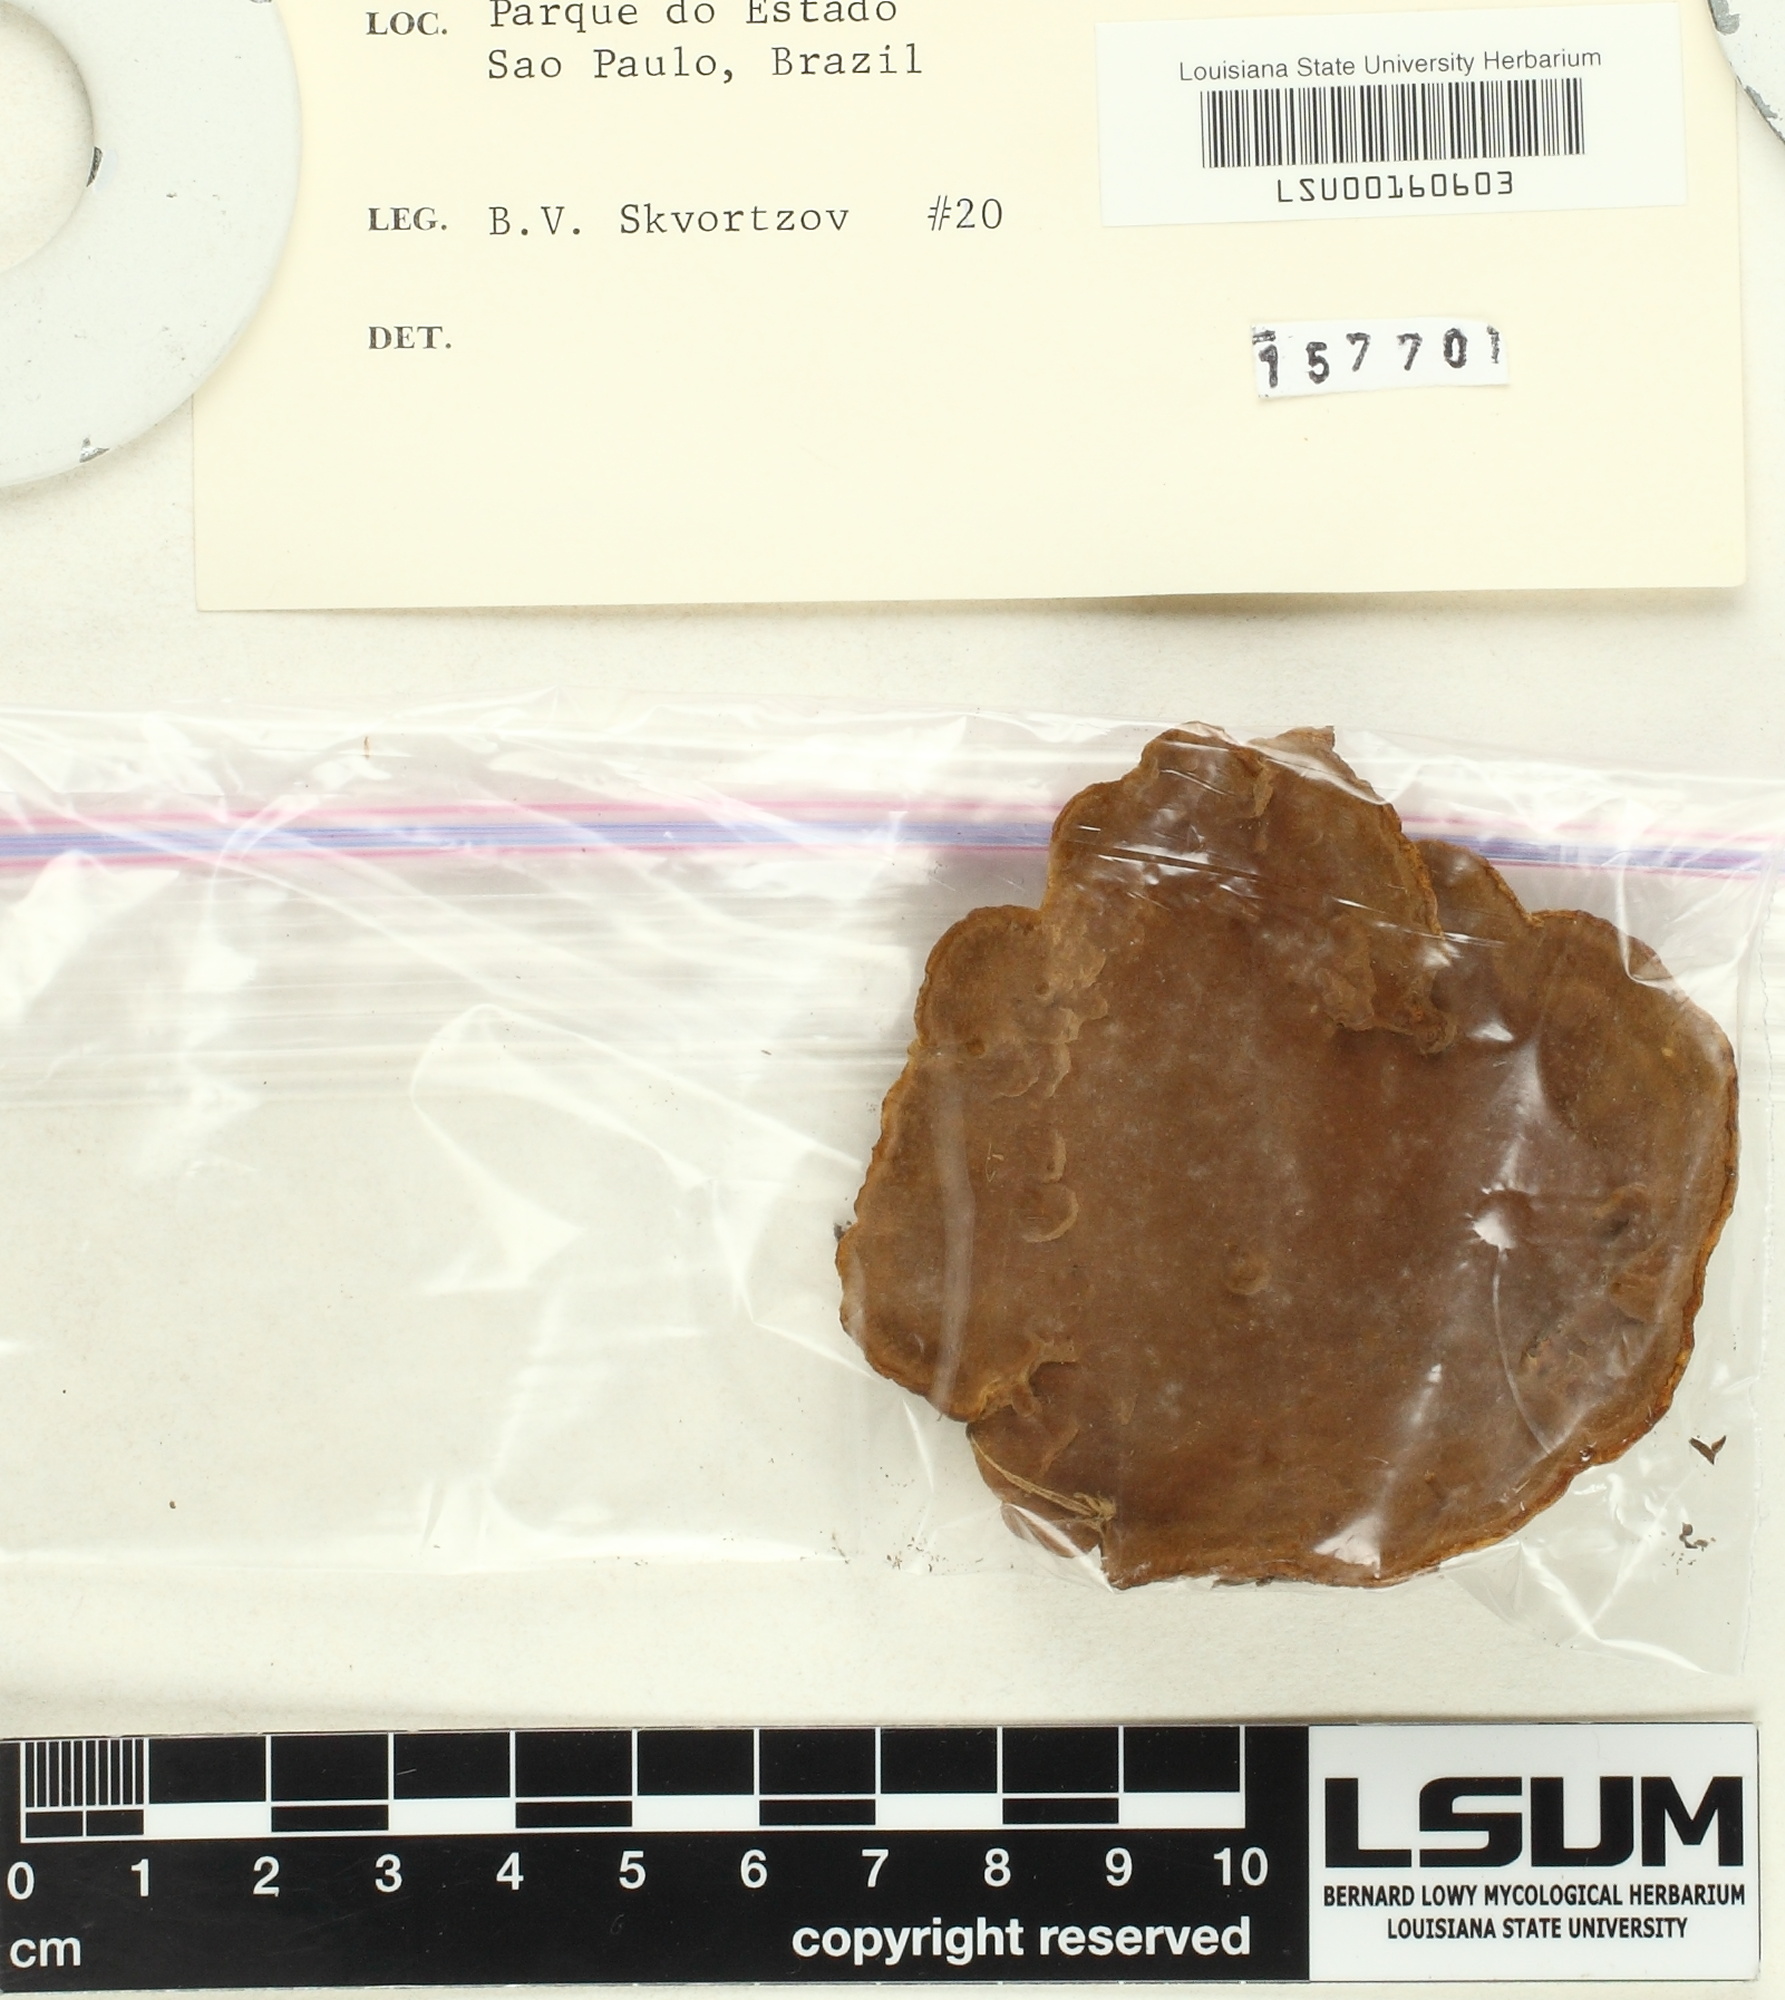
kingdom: Fungi
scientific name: Fungi
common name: Fungi
